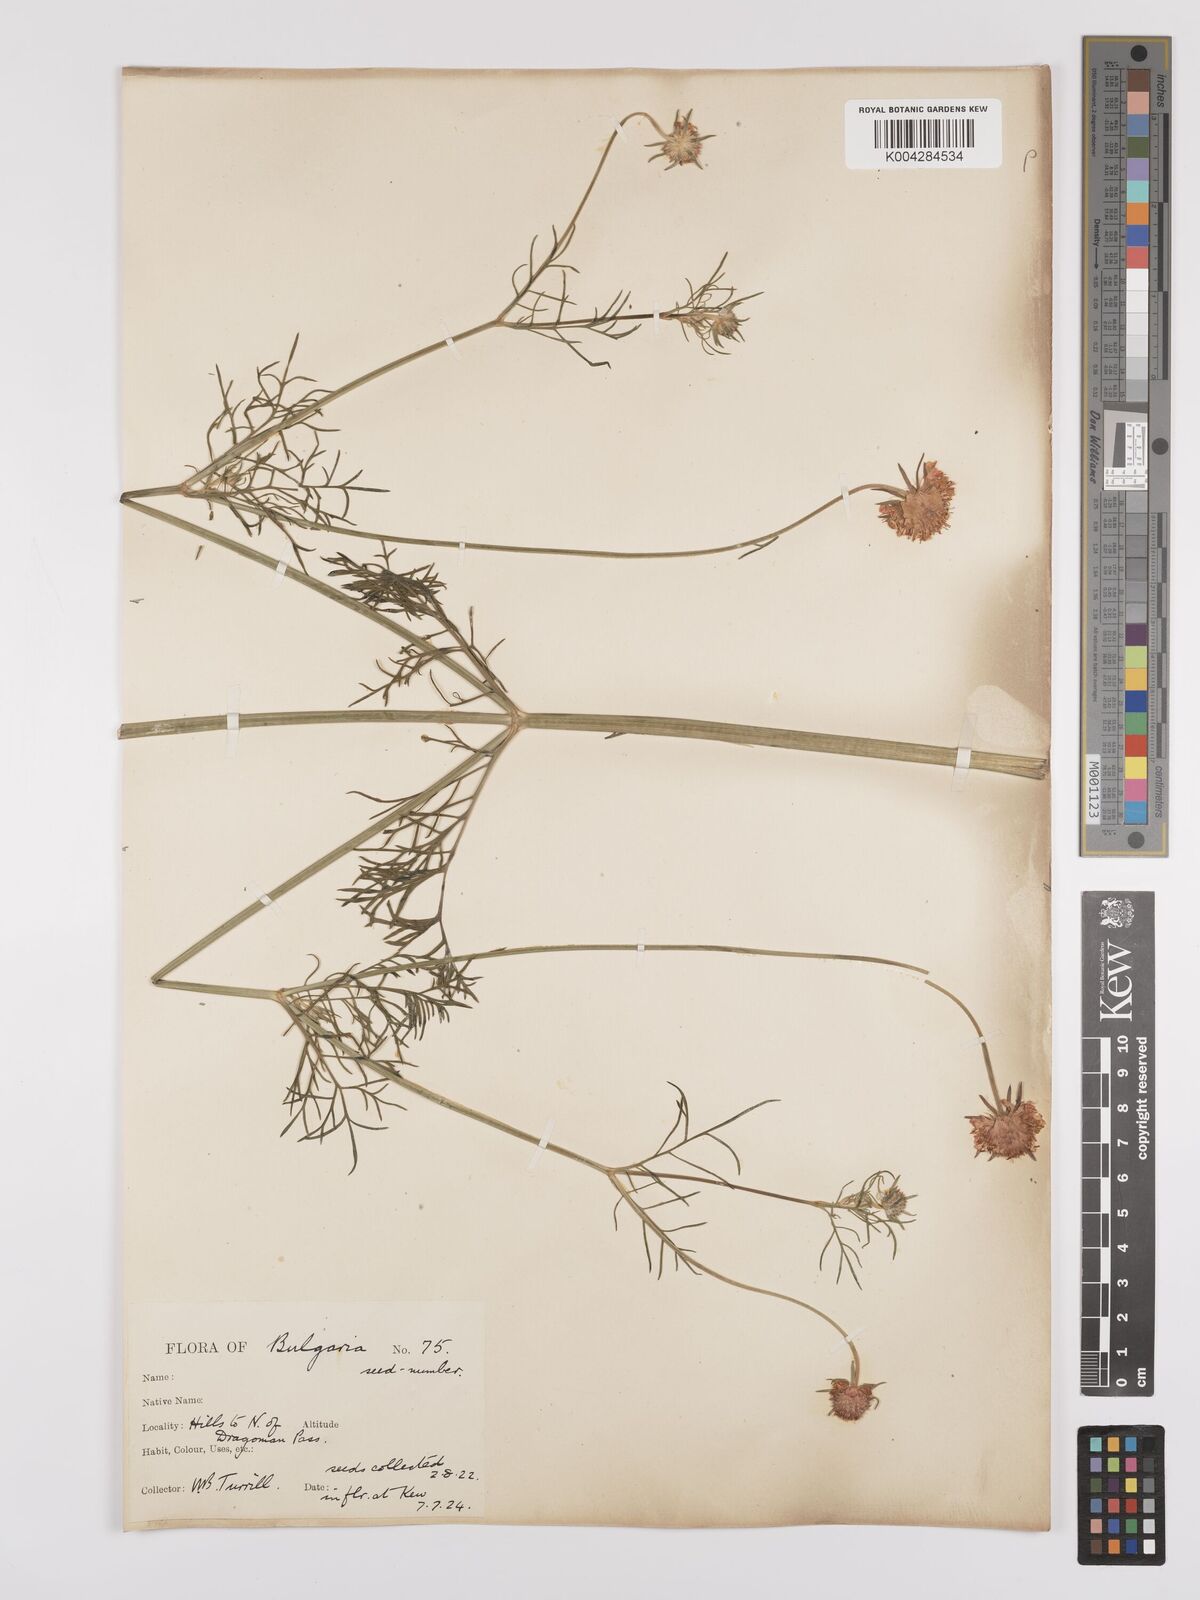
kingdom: Plantae
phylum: Tracheophyta
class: Magnoliopsida
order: Dipsacales
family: Caprifoliaceae
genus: Scabiosa
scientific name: Scabiosa triniifolia
